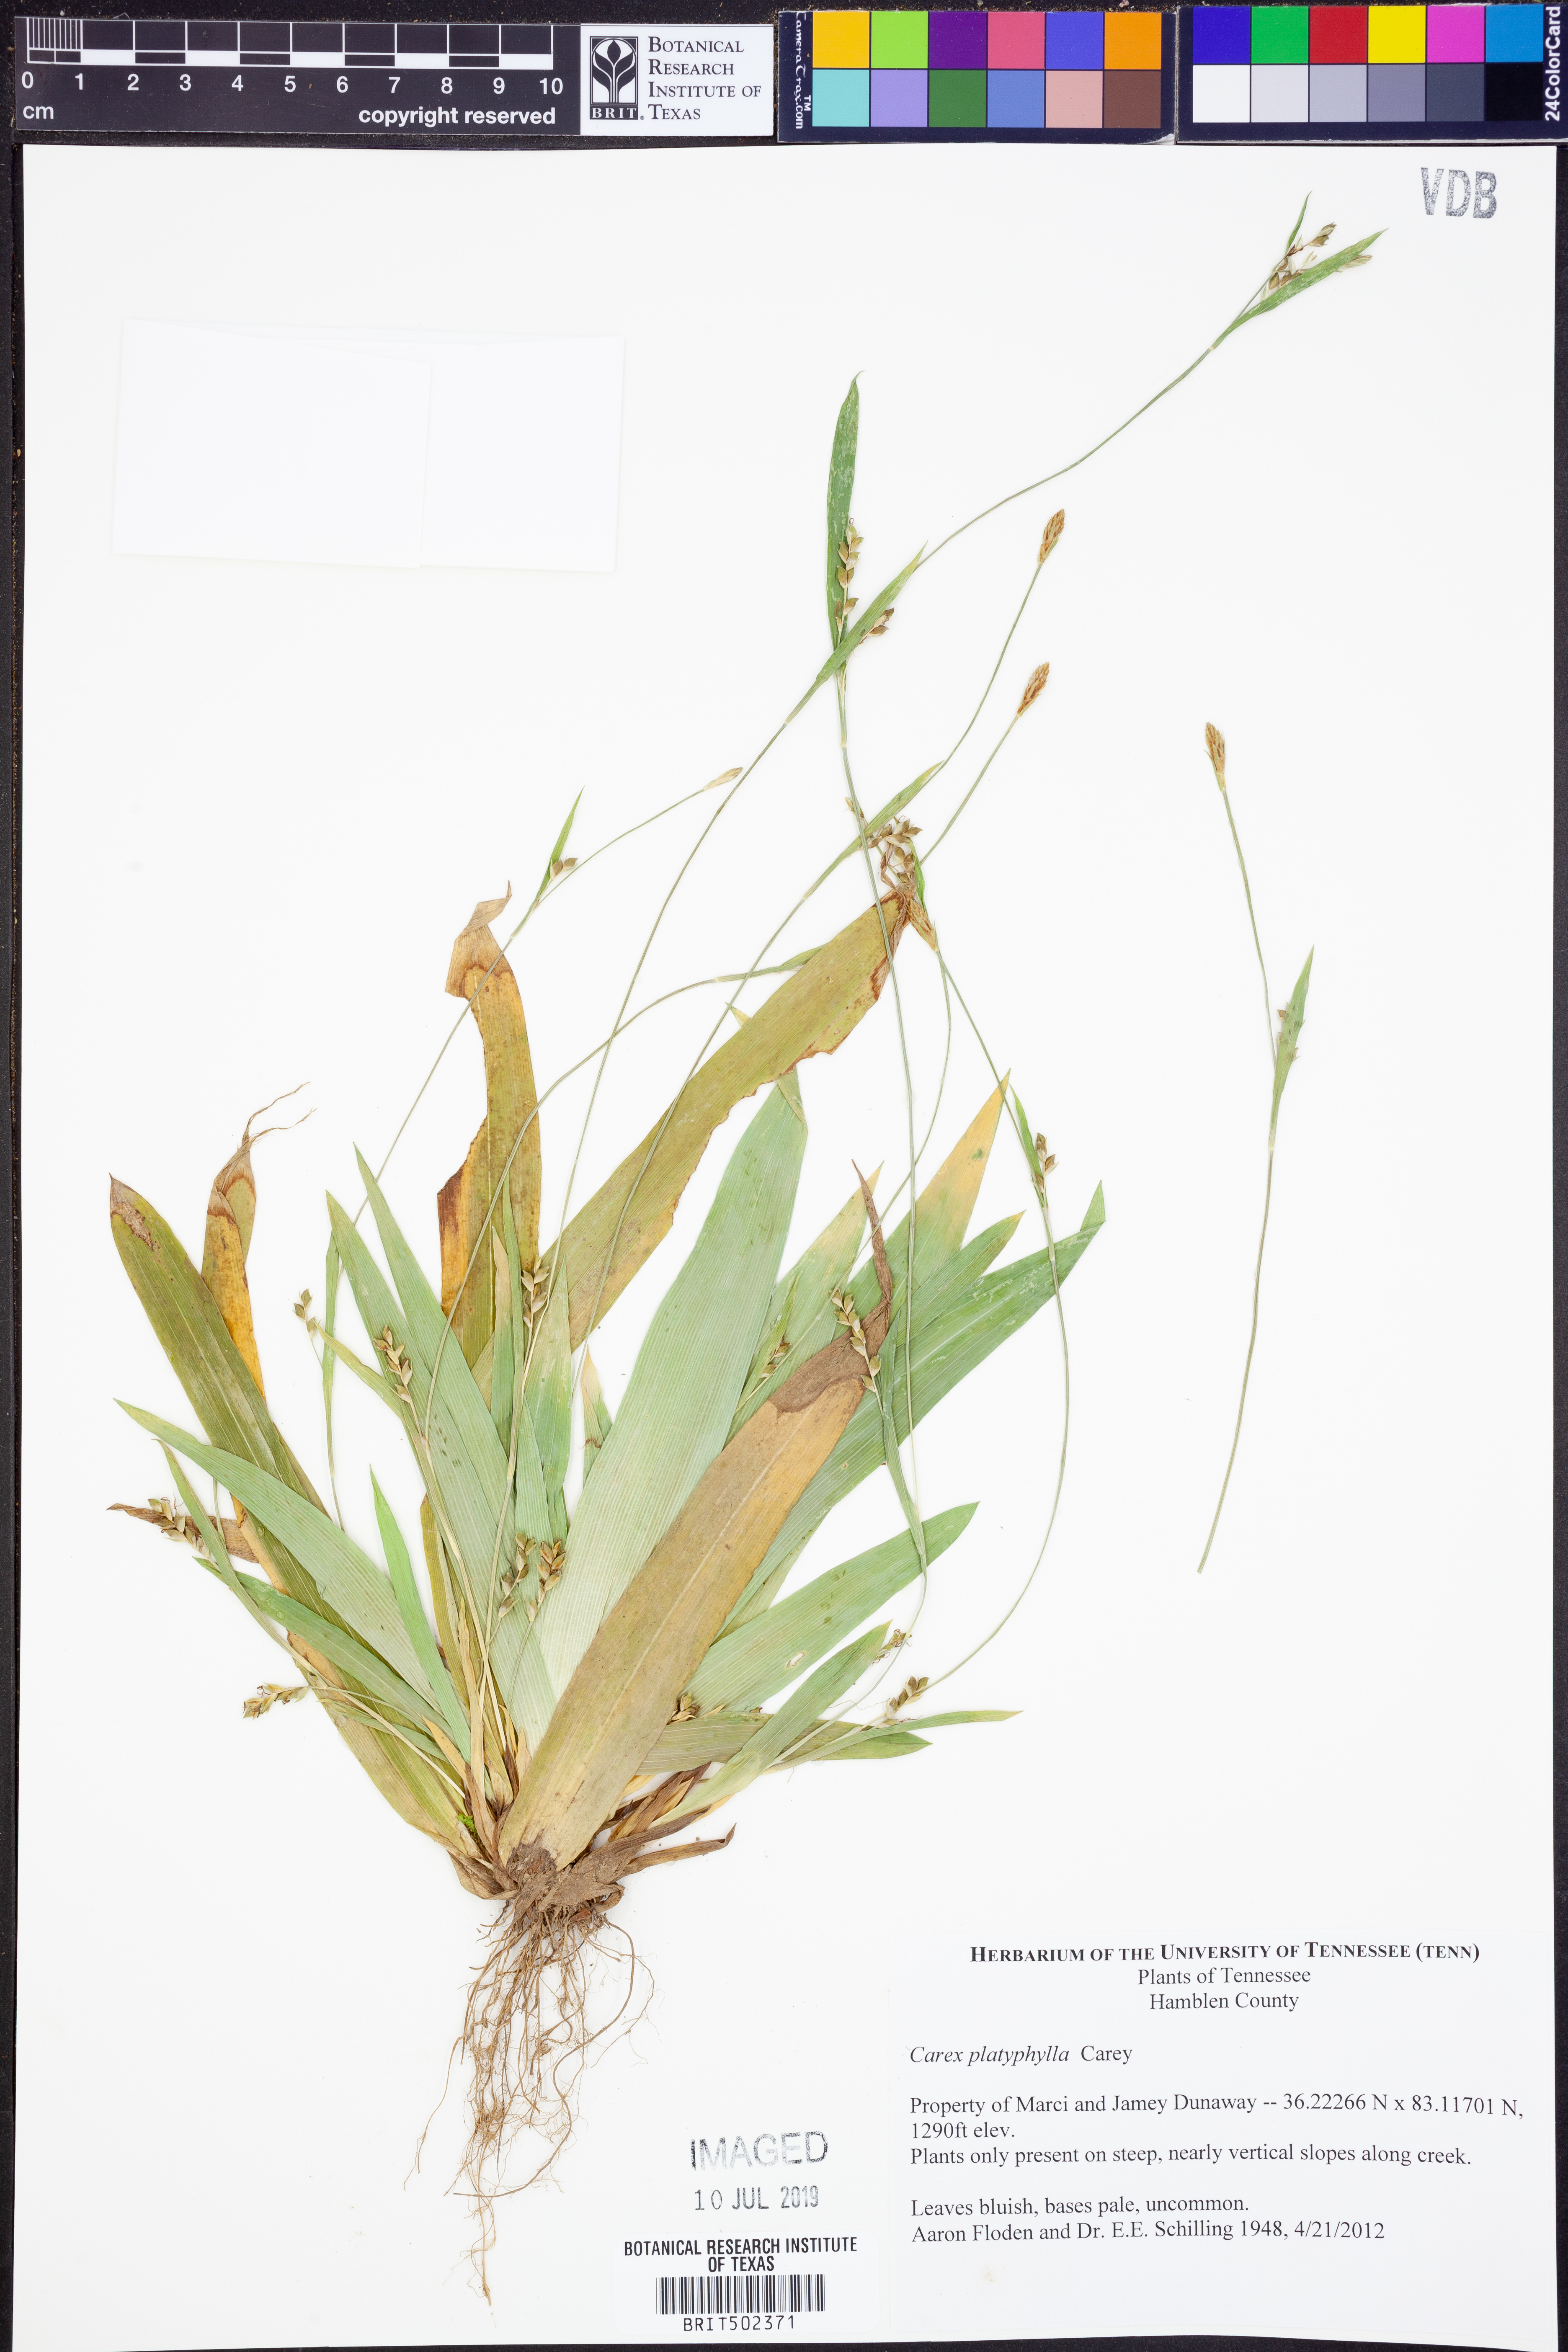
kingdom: Plantae
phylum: Tracheophyta
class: Liliopsida
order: Poales
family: Cyperaceae
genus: Carex
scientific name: Carex platyphylla
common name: Broad-leaved sedge
